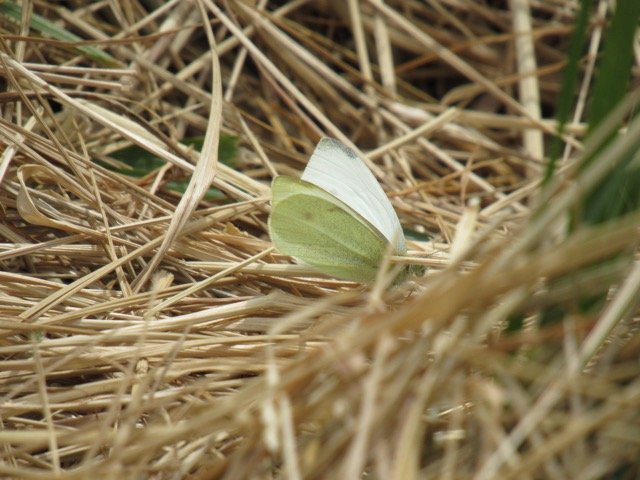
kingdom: Animalia
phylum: Arthropoda
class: Insecta
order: Lepidoptera
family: Pieridae
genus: Pieris
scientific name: Pieris rapae
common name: Cabbage White
